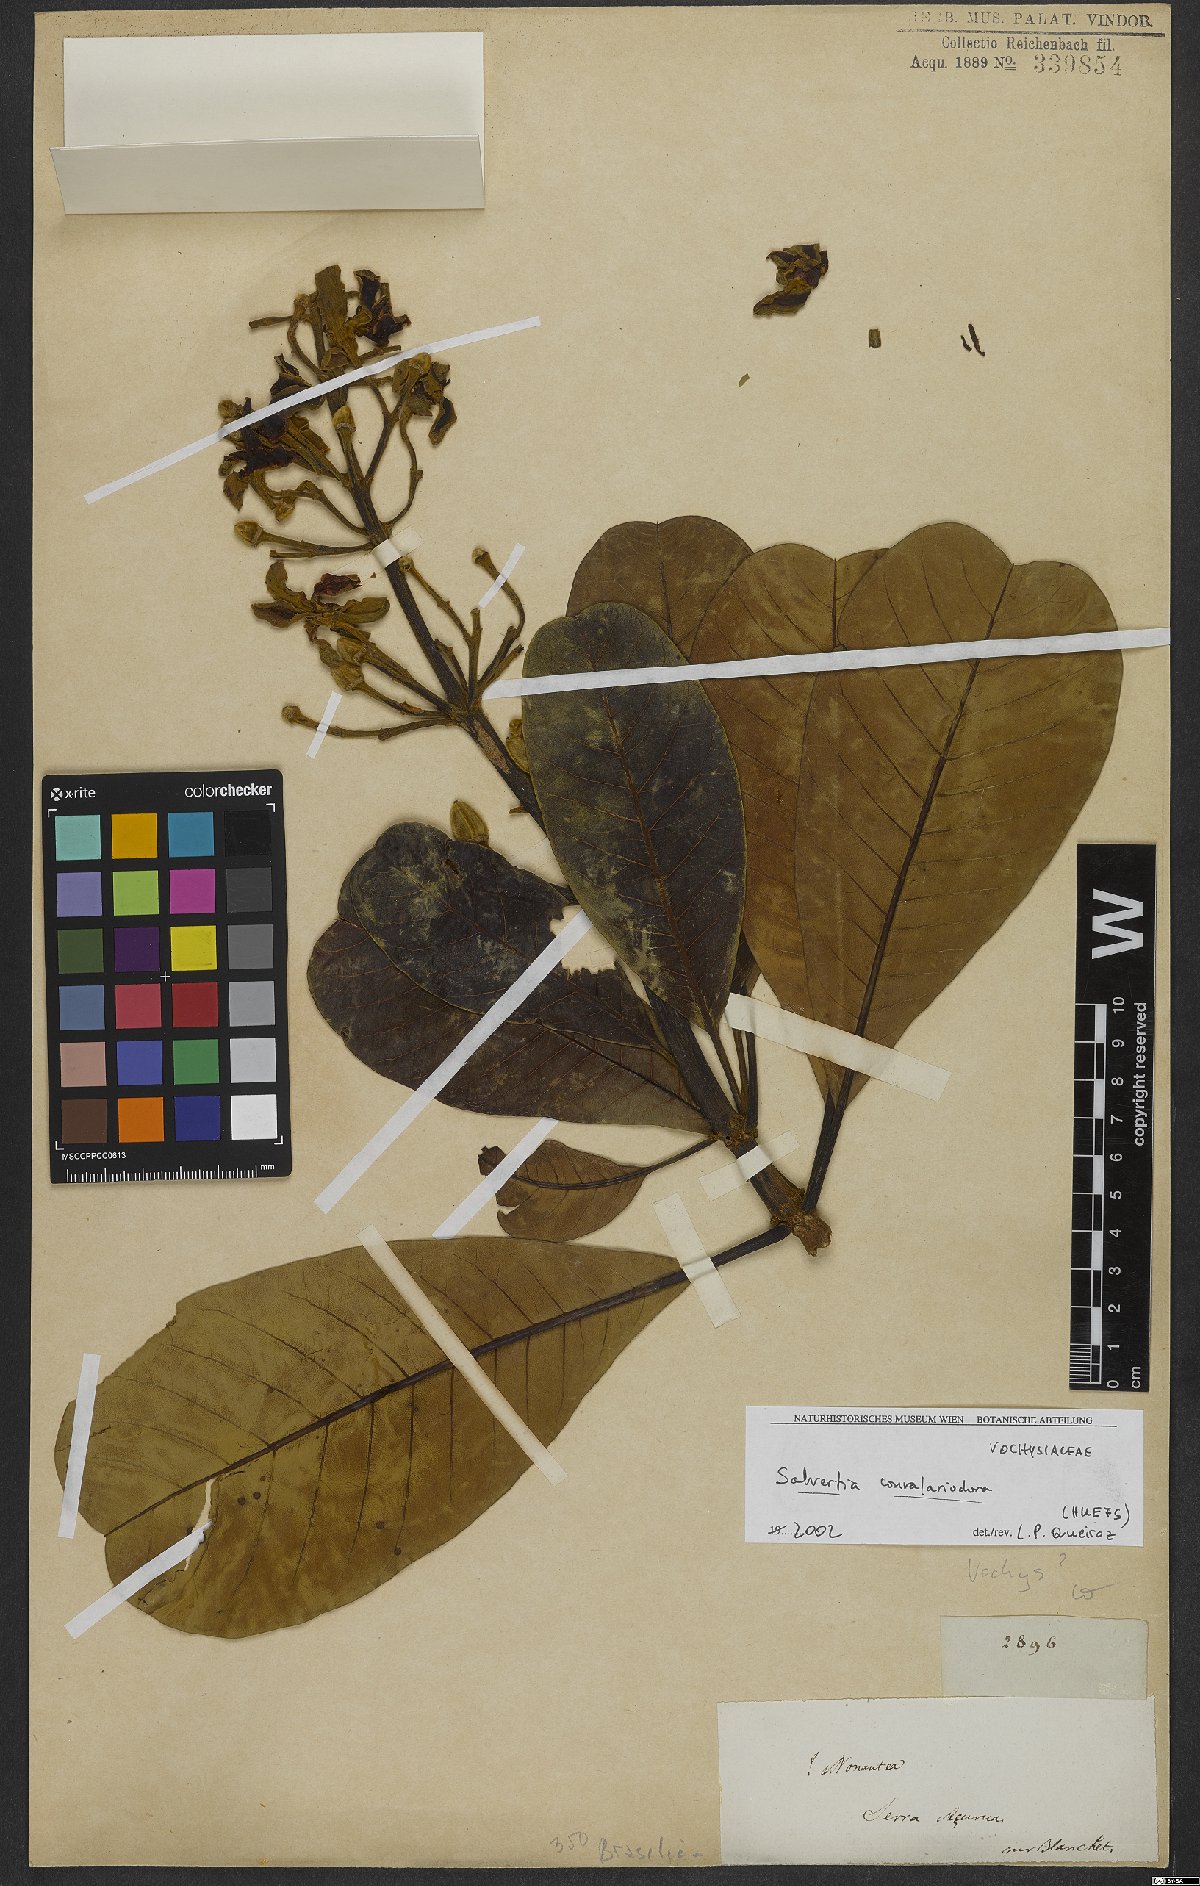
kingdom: Plantae
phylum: Tracheophyta
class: Magnoliopsida
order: Myrtales
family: Vochysiaceae
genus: Salvertia
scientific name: Salvertia convallariodora
